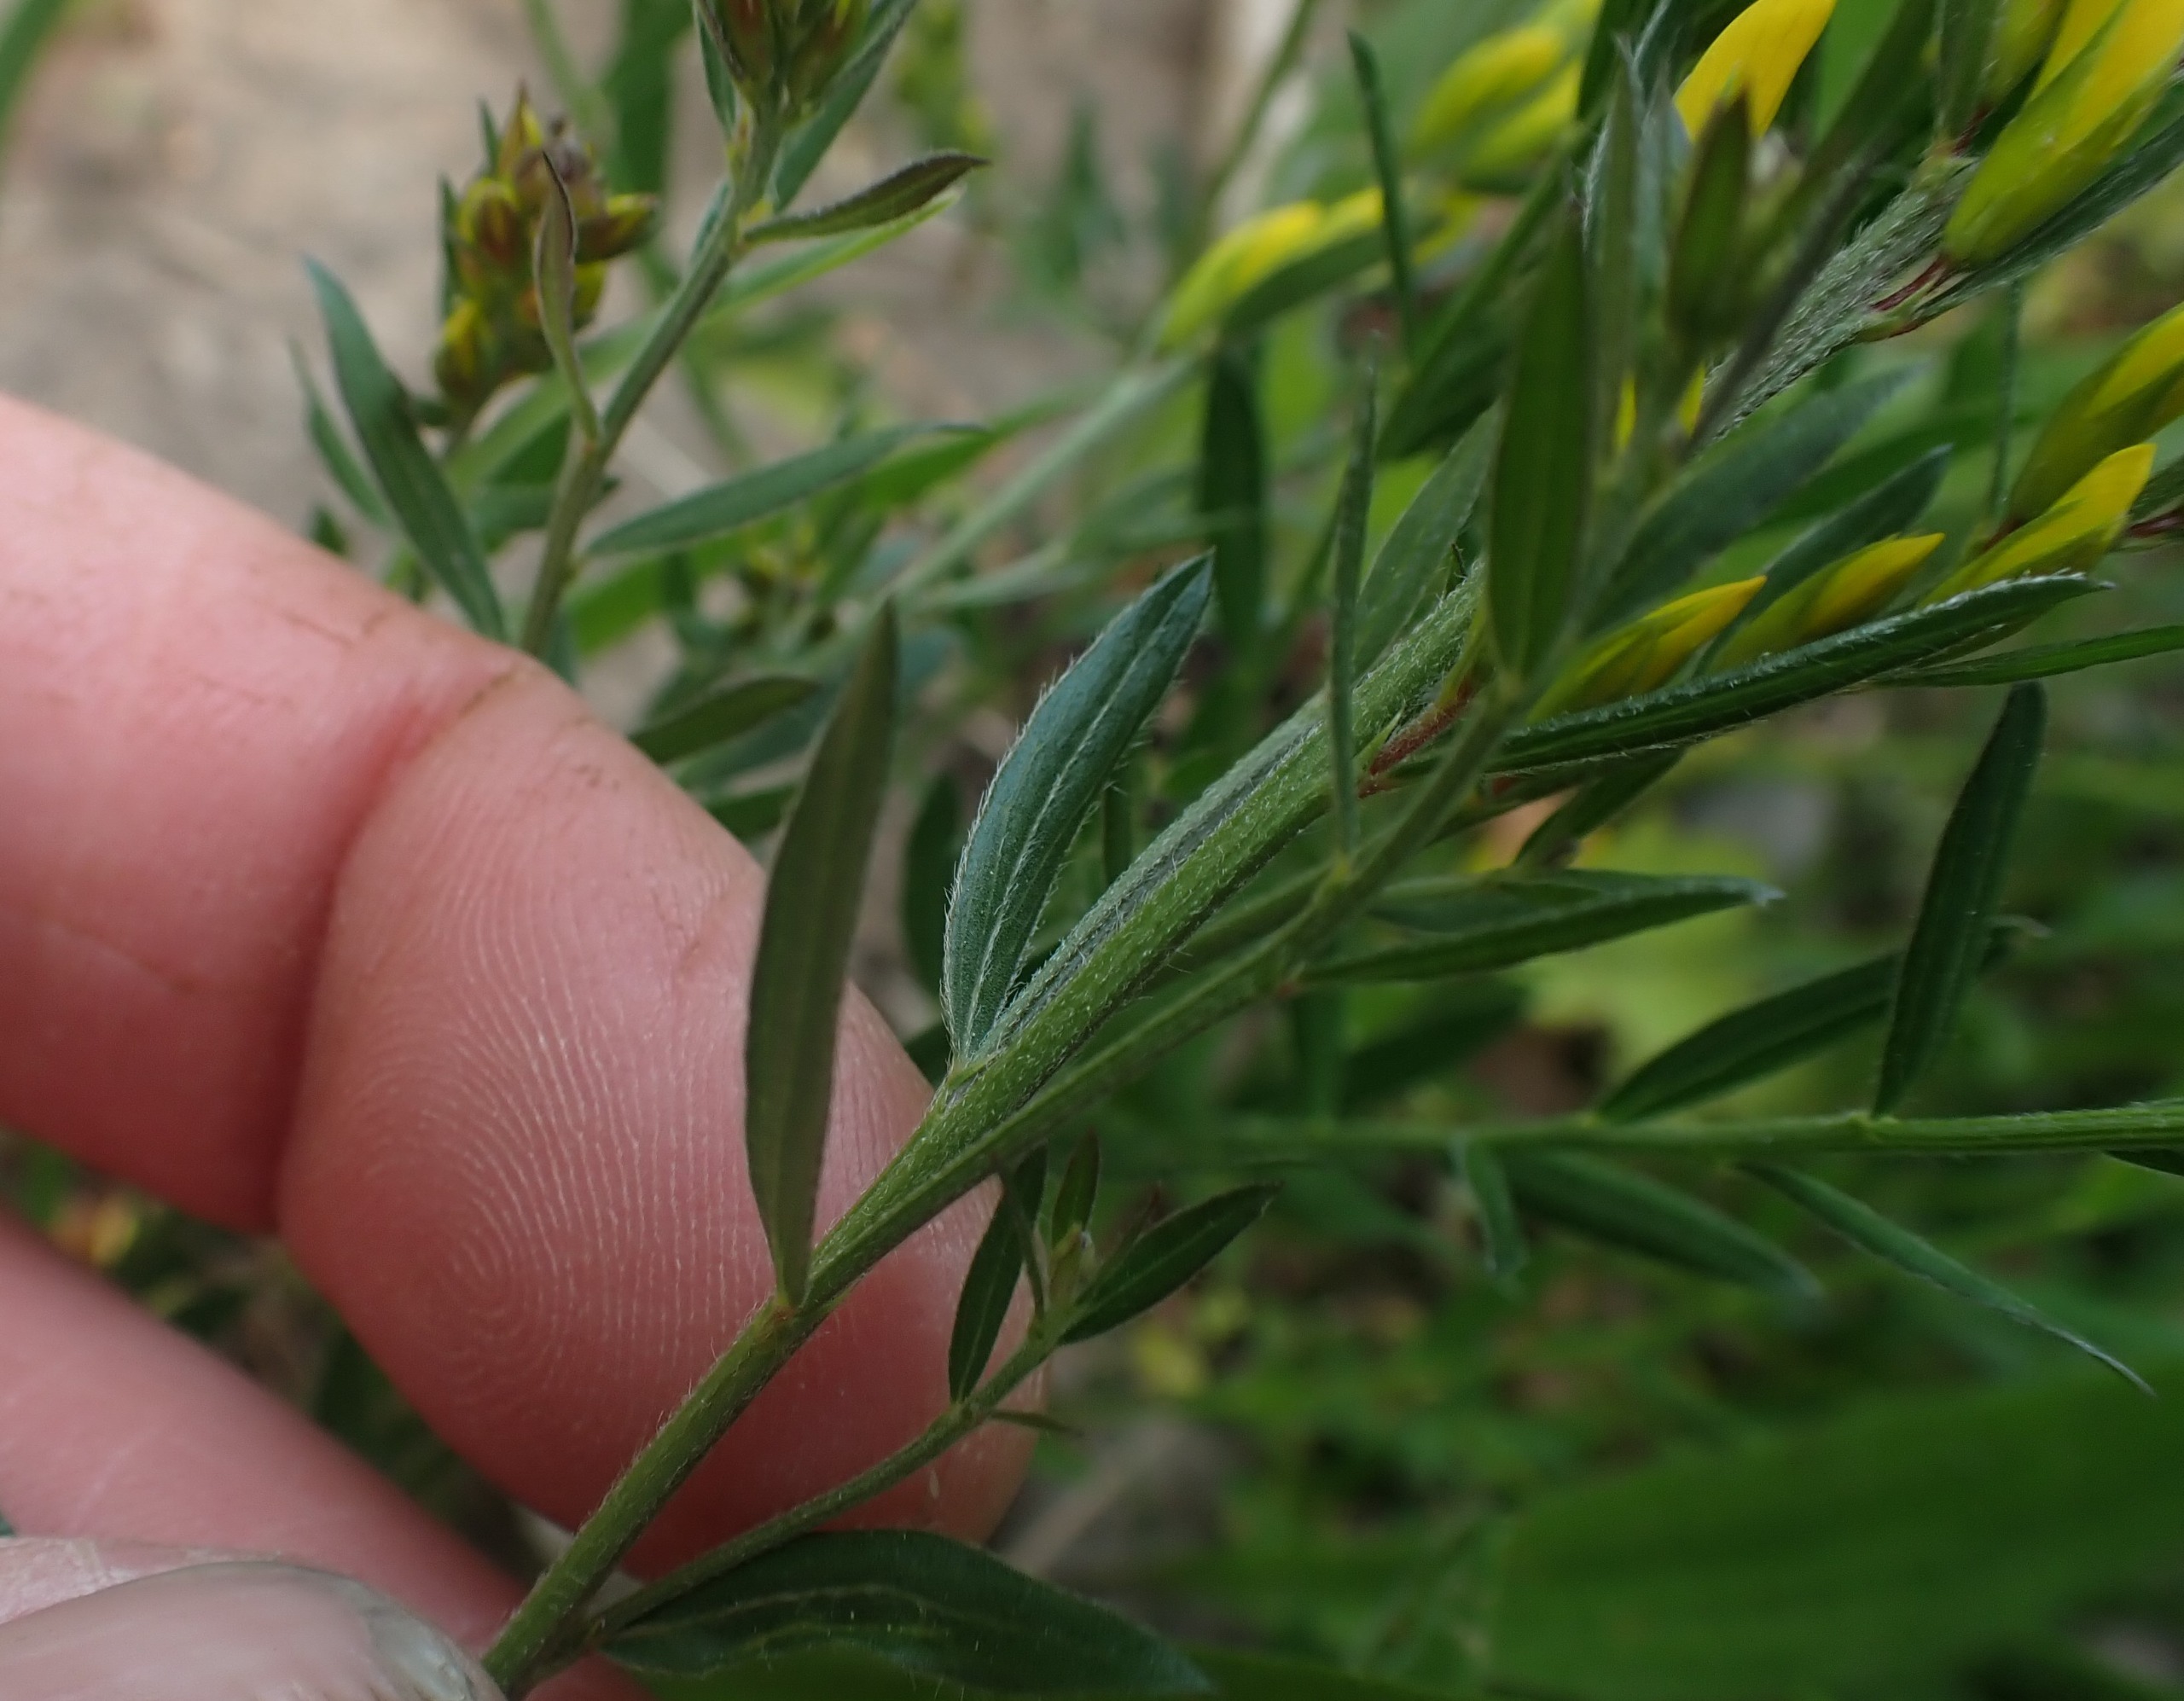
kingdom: Plantae
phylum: Tracheophyta
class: Magnoliopsida
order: Fabales
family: Fabaceae
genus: Genista
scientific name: Genista tinctoria
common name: Farve-visse
